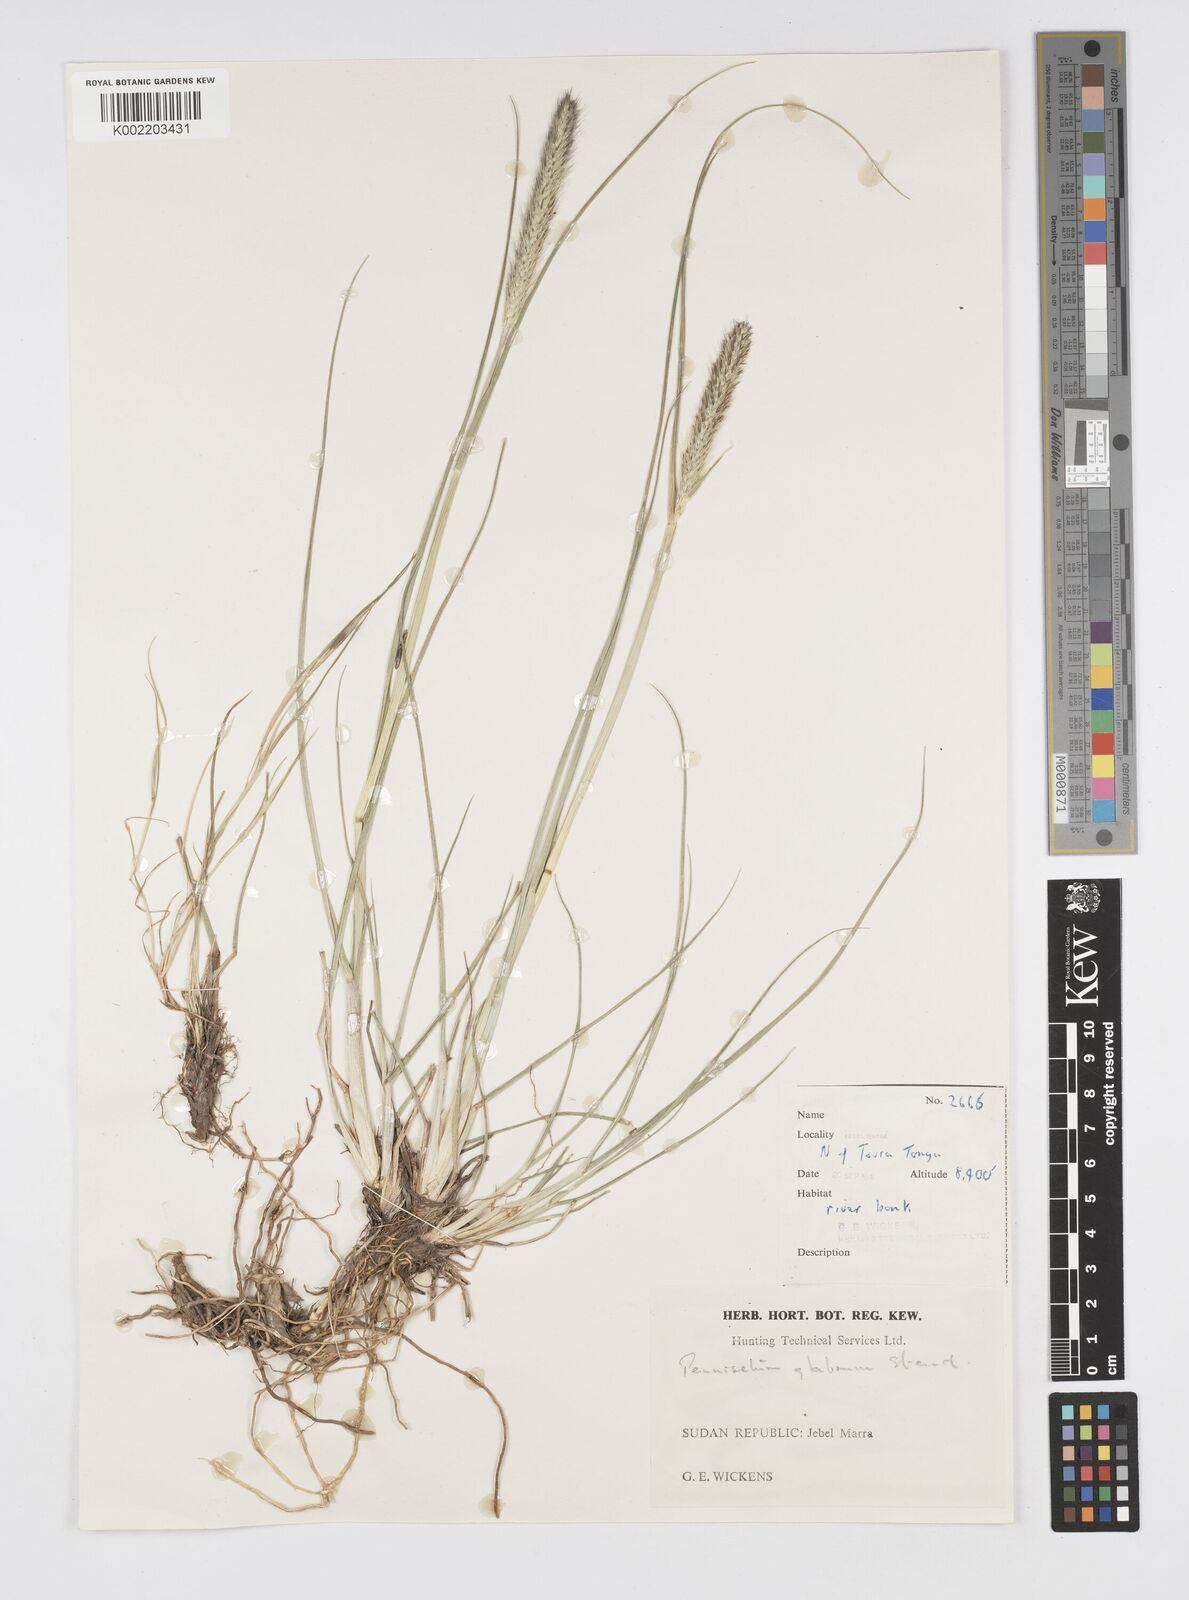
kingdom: Plantae
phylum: Tracheophyta
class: Liliopsida
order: Poales
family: Poaceae
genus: Cenchrus
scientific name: Cenchrus geniculatus
